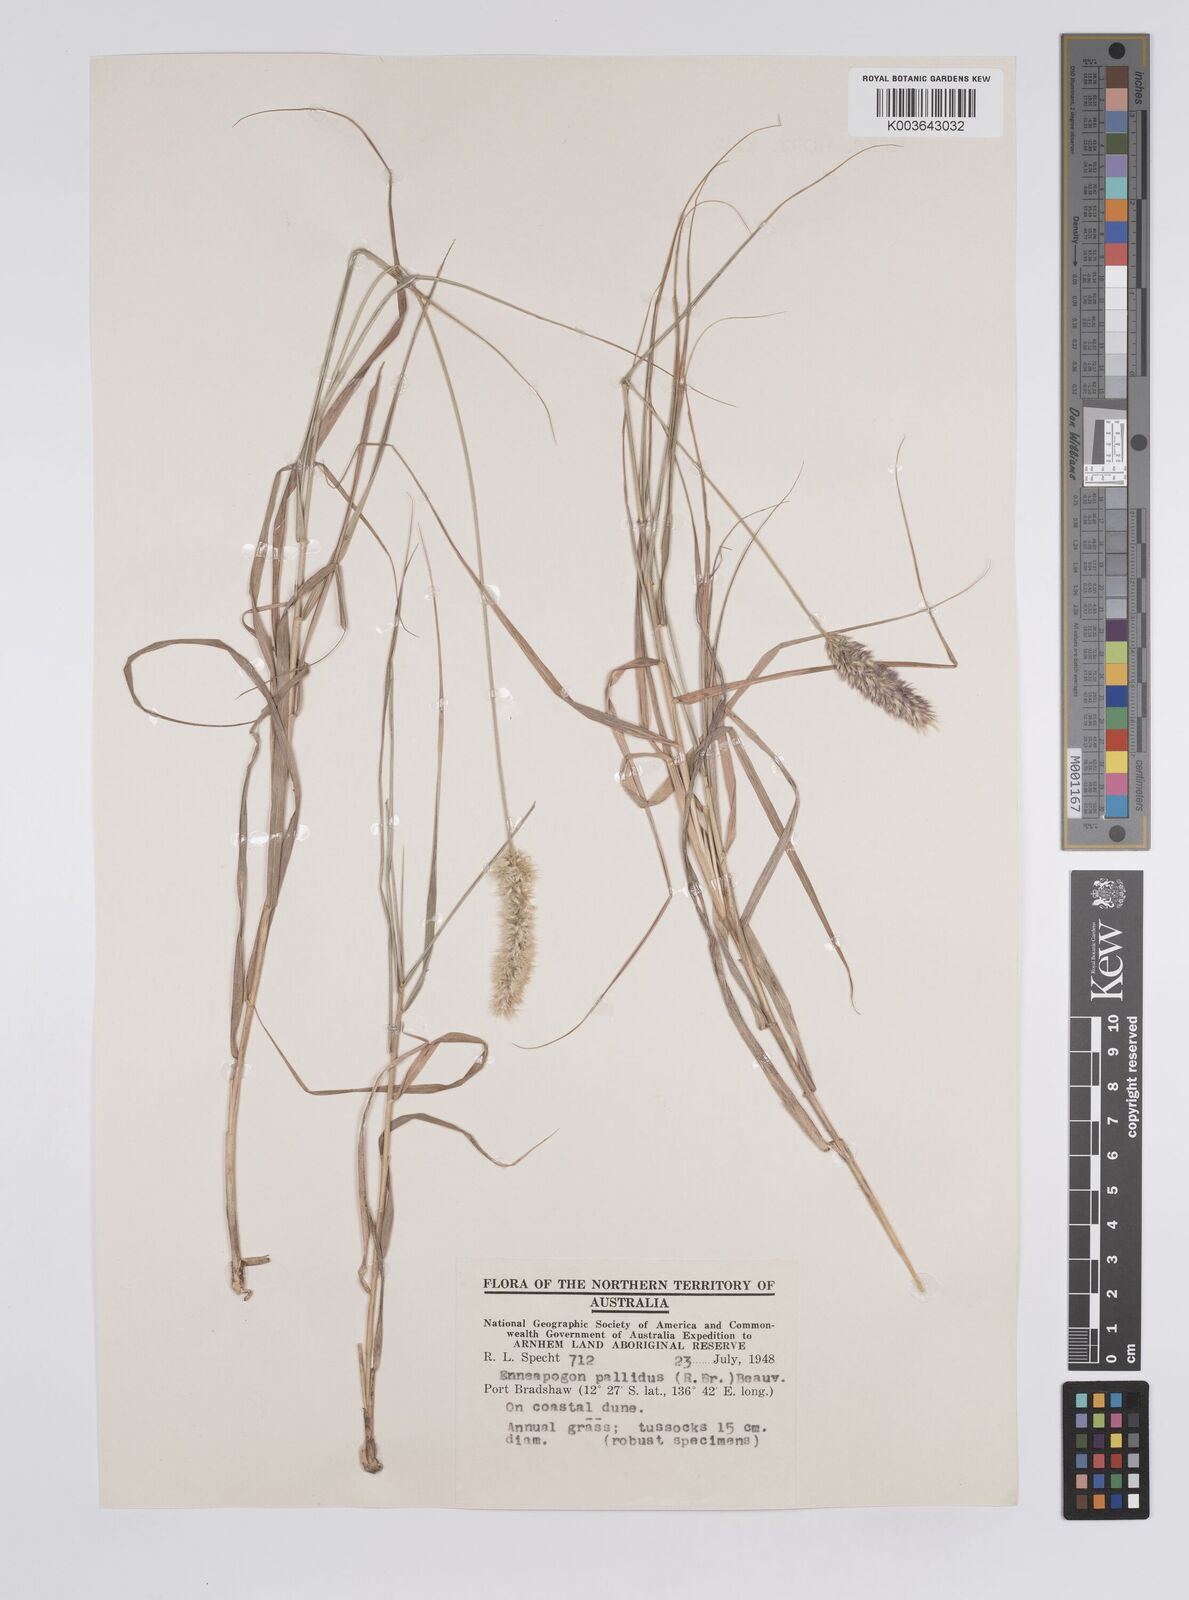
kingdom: Plantae
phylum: Tracheophyta
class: Liliopsida
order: Poales
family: Poaceae
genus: Enneapogon
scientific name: Enneapogon pallidus
